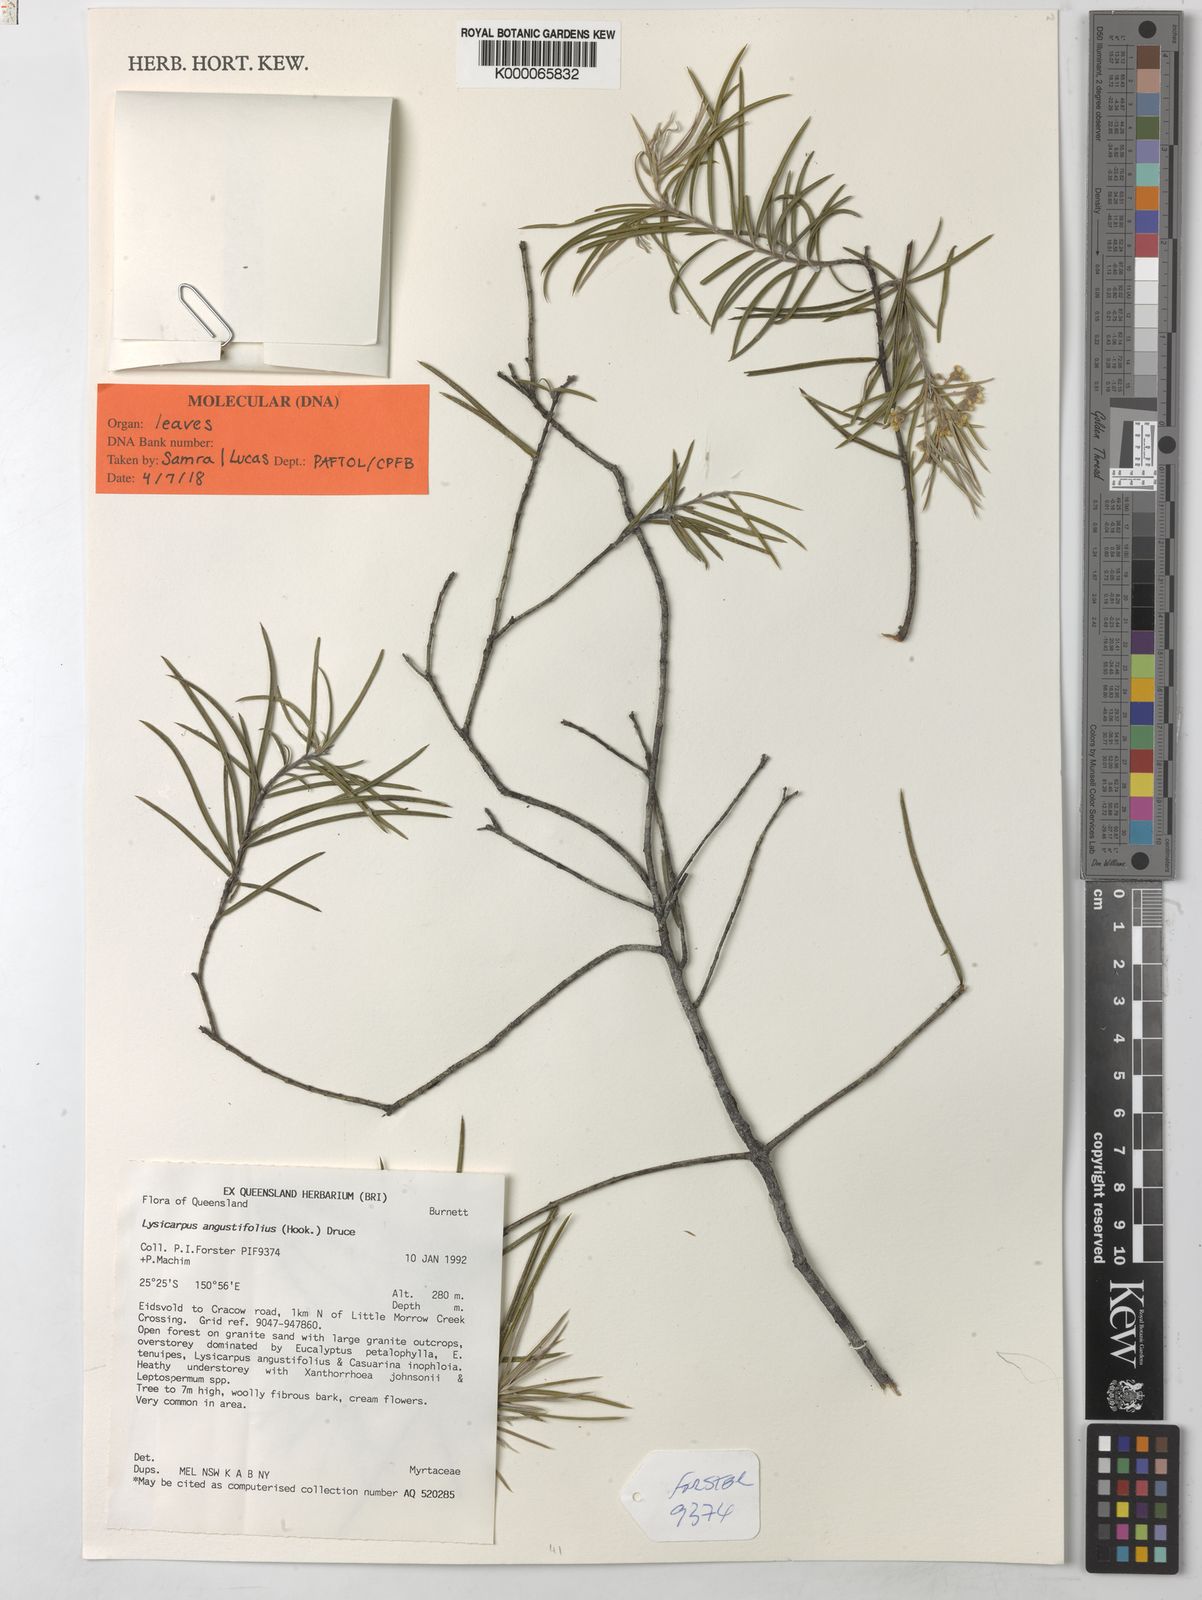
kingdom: Plantae
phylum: Tracheophyta
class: Magnoliopsida
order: Myrtales
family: Myrtaceae
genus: Lysicarpus
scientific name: Lysicarpus angustifolius
